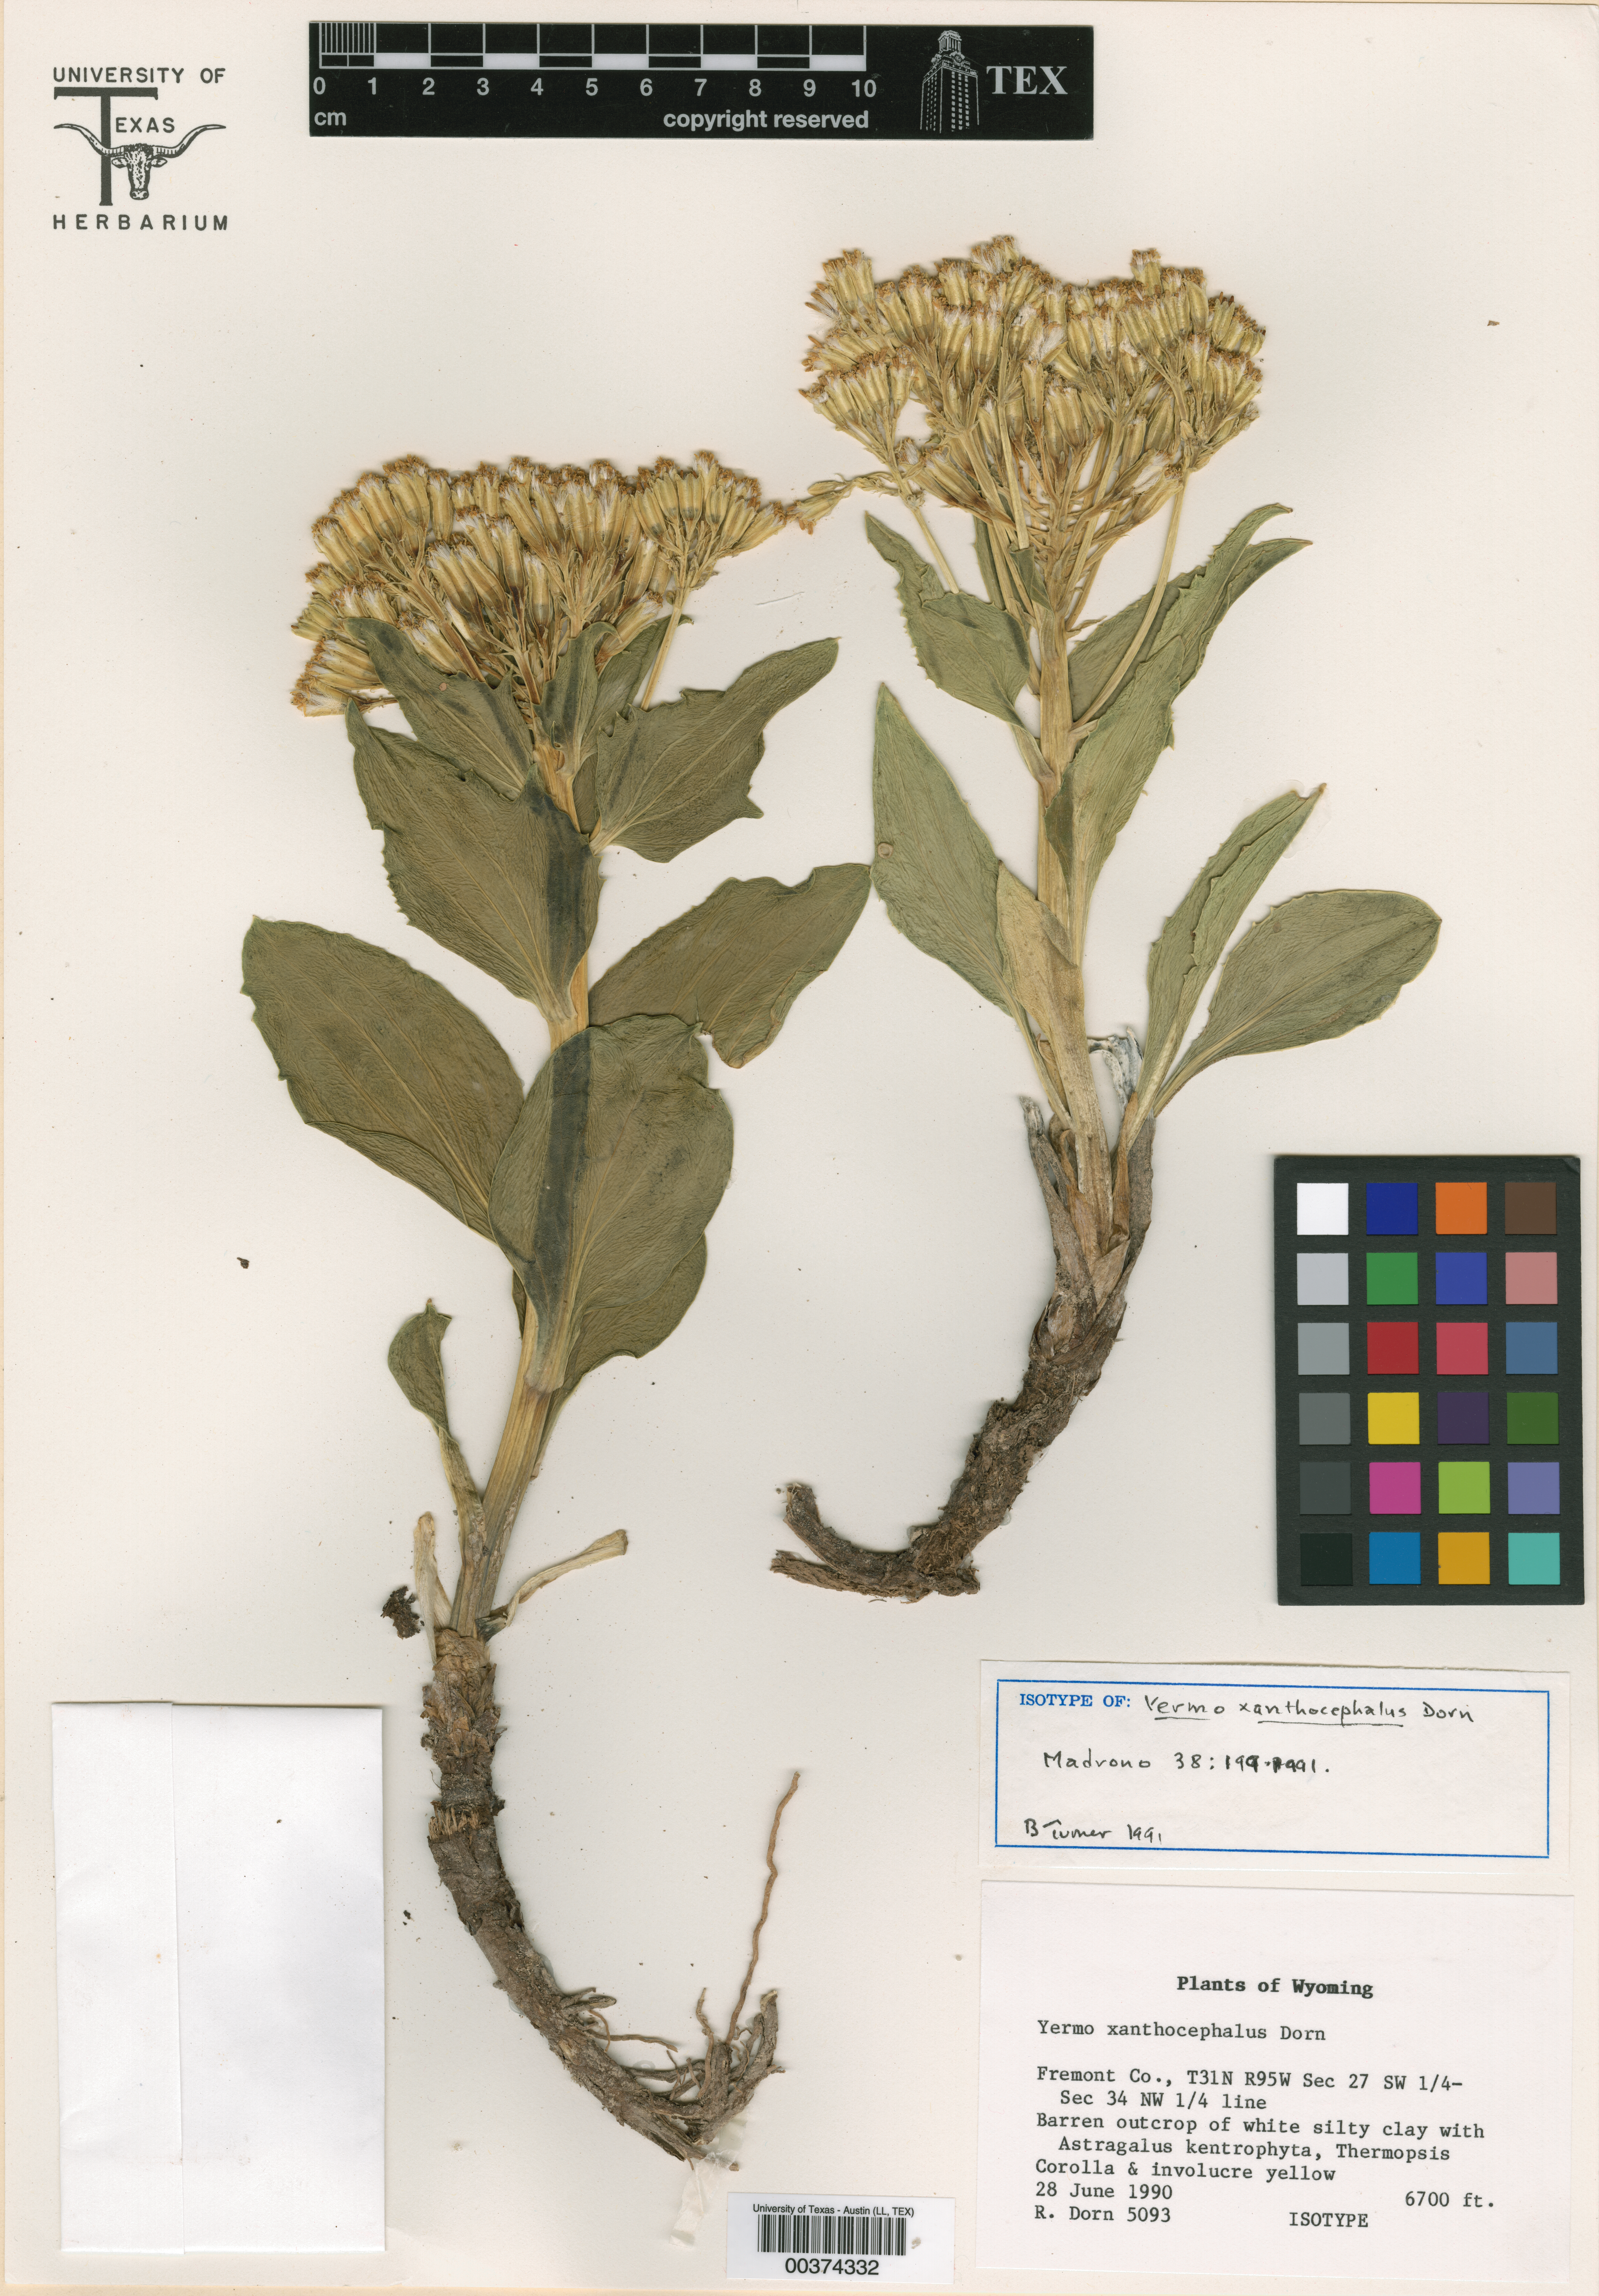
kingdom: Plantae
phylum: Tracheophyta
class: Magnoliopsida
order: Asterales
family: Asteraceae
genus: Yermo
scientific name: Yermo xanthocephalus
